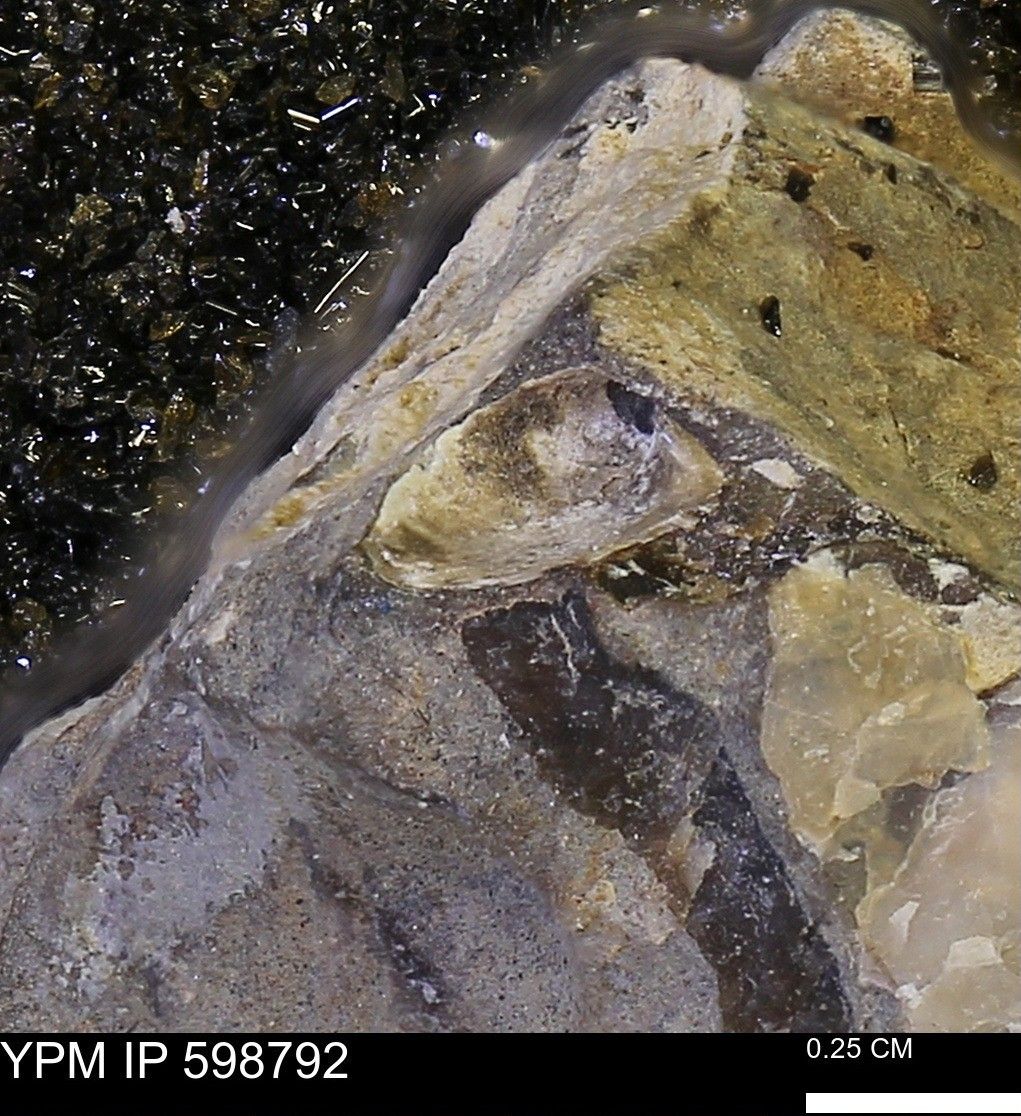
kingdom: Animalia
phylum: Mollusca
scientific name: Mollusca
